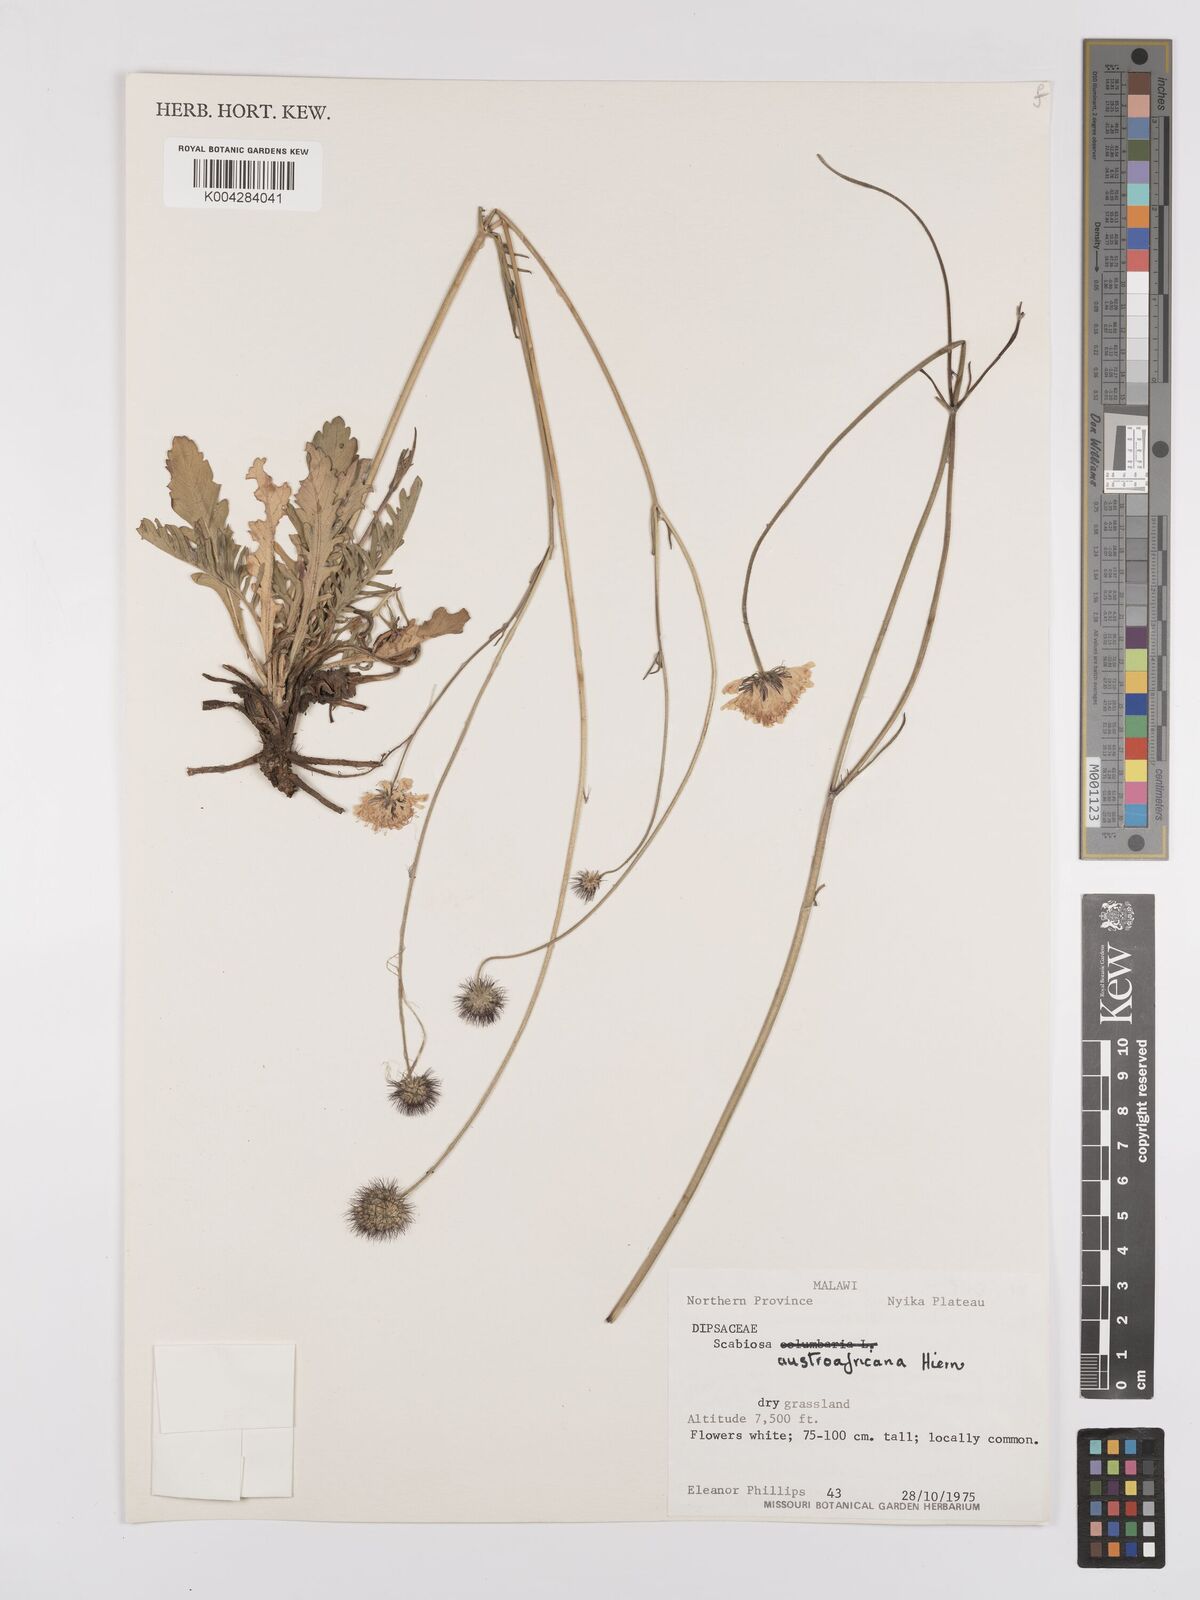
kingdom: Plantae
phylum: Tracheophyta
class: Magnoliopsida
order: Dipsacales
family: Caprifoliaceae
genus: Scabiosa
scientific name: Scabiosa austroafricana
